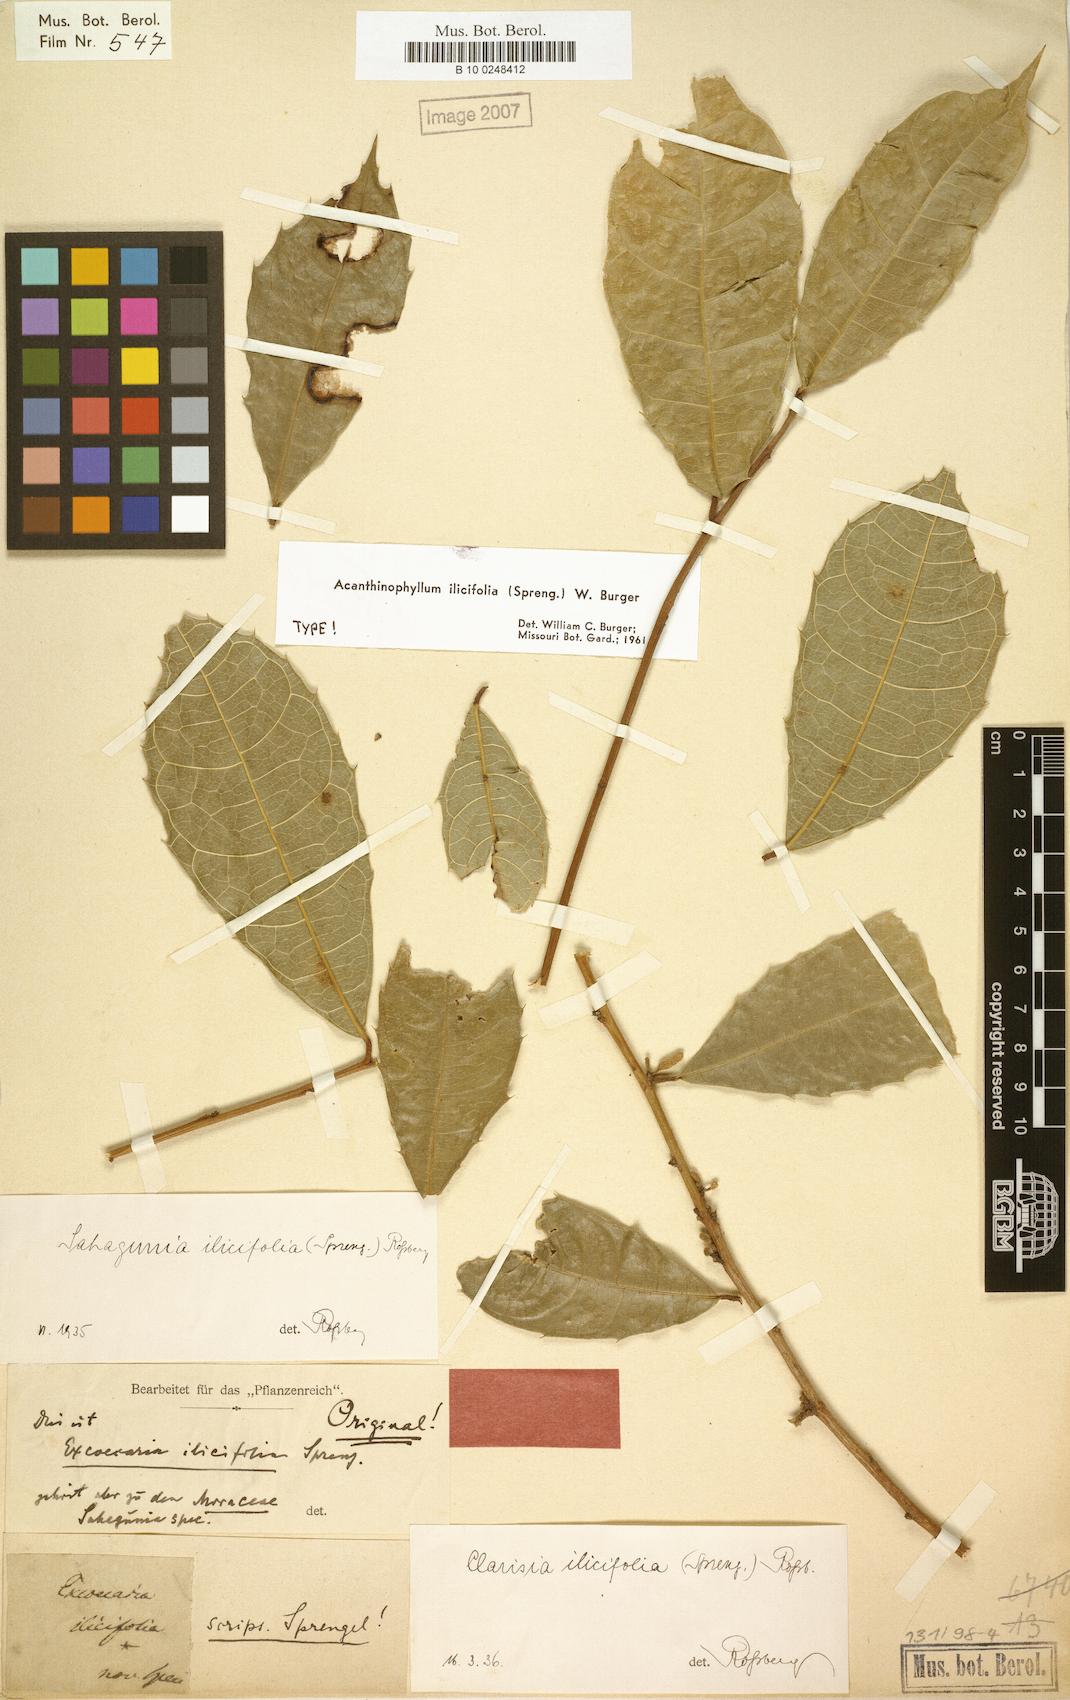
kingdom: Plantae
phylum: Tracheophyta
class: Magnoliopsida
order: Rosales
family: Moraceae
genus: Clarisia
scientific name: Clarisia ilicifolia
